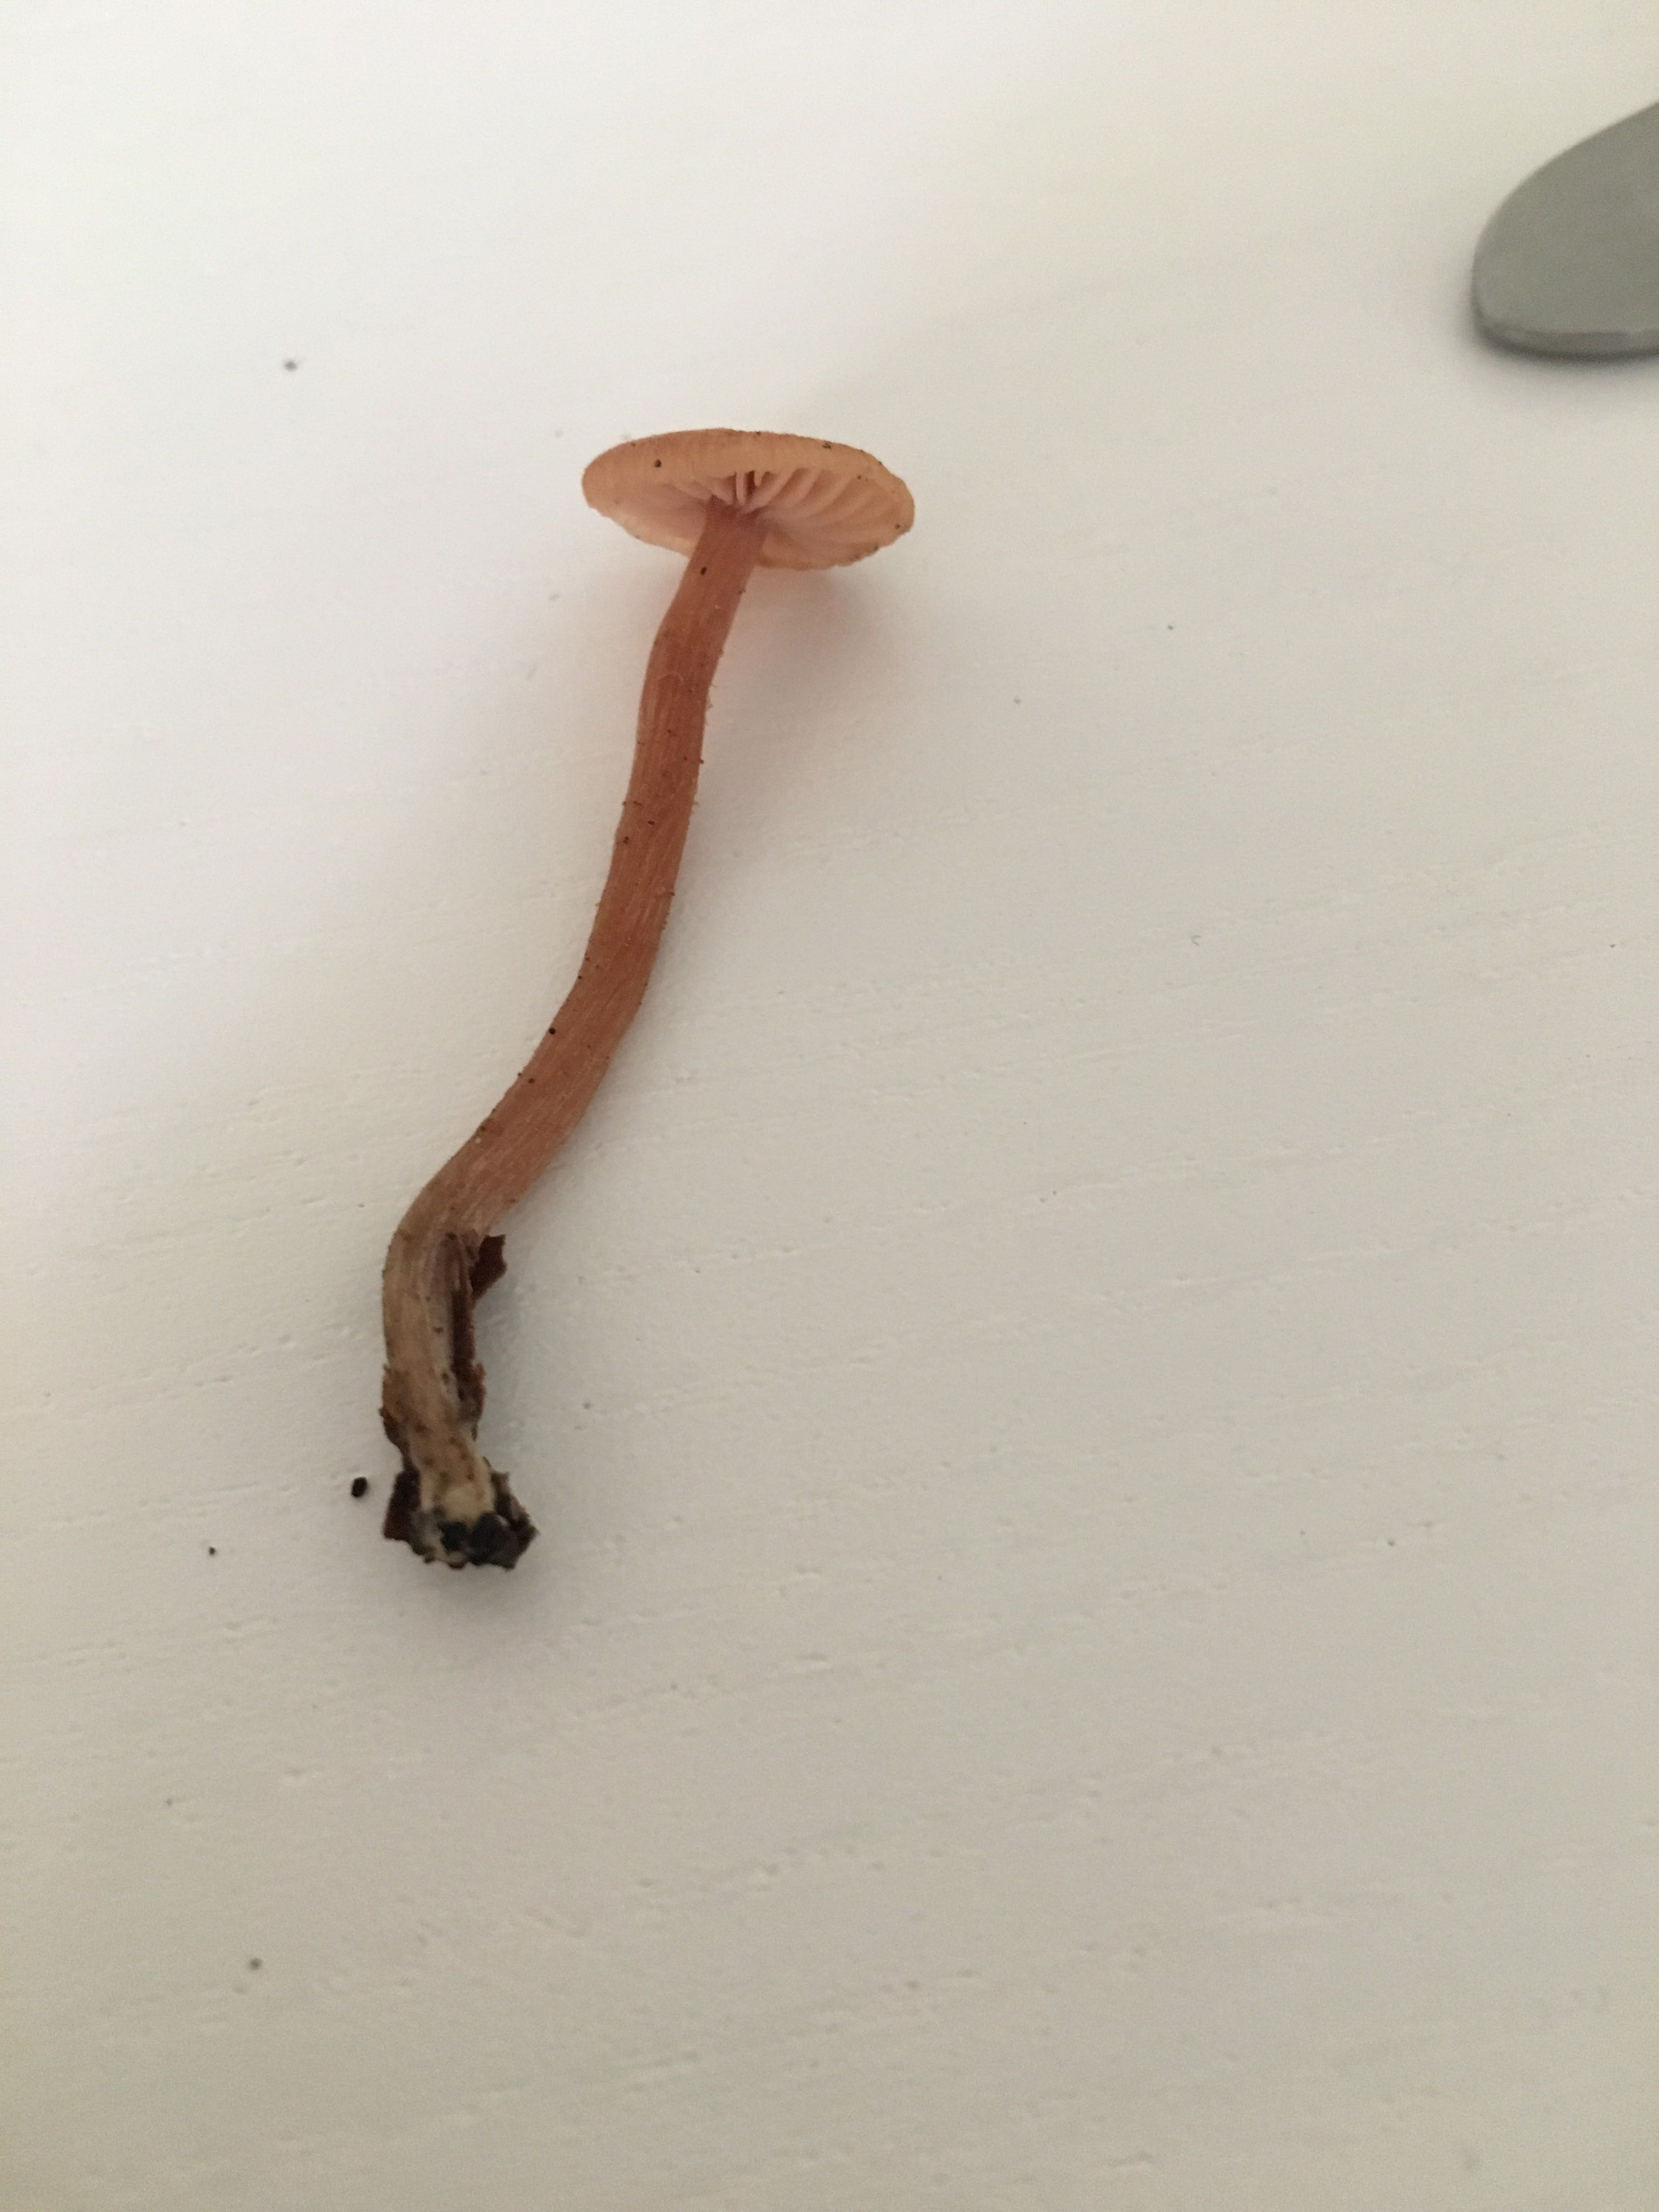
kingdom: Fungi
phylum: Basidiomycota
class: Agaricomycetes
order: Agaricales
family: Hydnangiaceae
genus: Laccaria
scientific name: Laccaria laccata
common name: rød ametysthat
